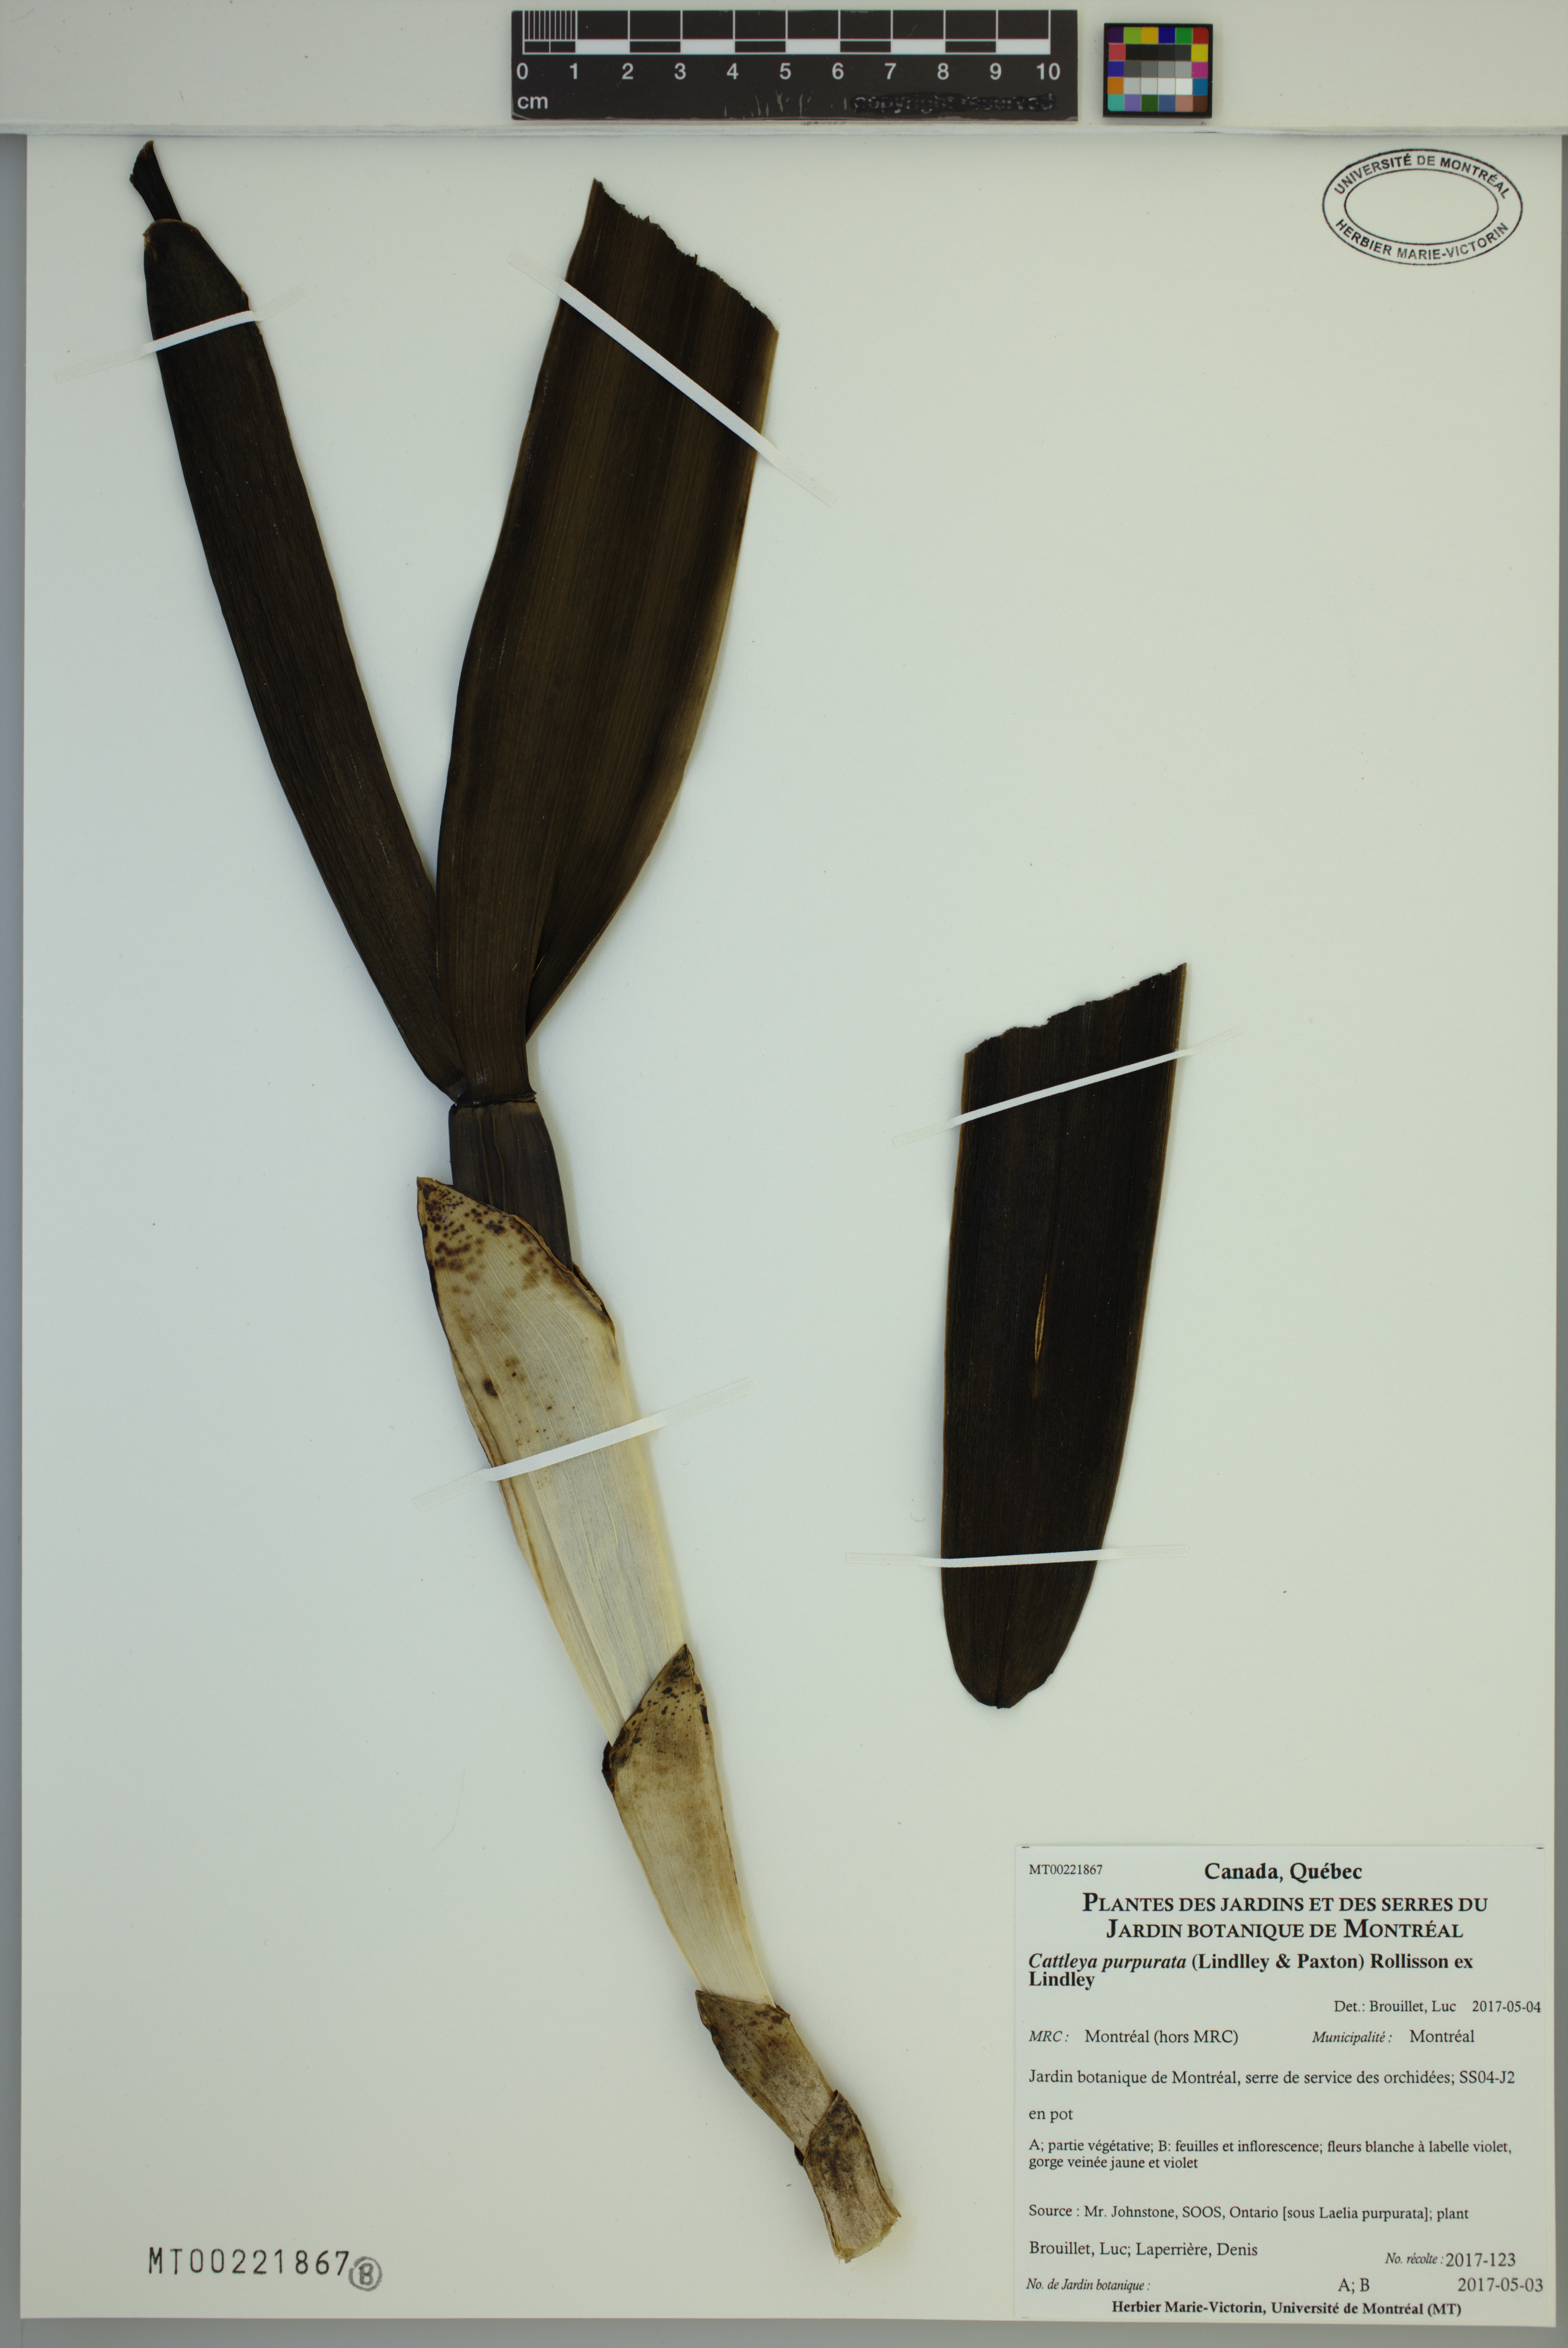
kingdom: Plantae
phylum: Tracheophyta
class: Liliopsida
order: Asparagales
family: Orchidaceae
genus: Cattleya
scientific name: Cattleya purpurata
